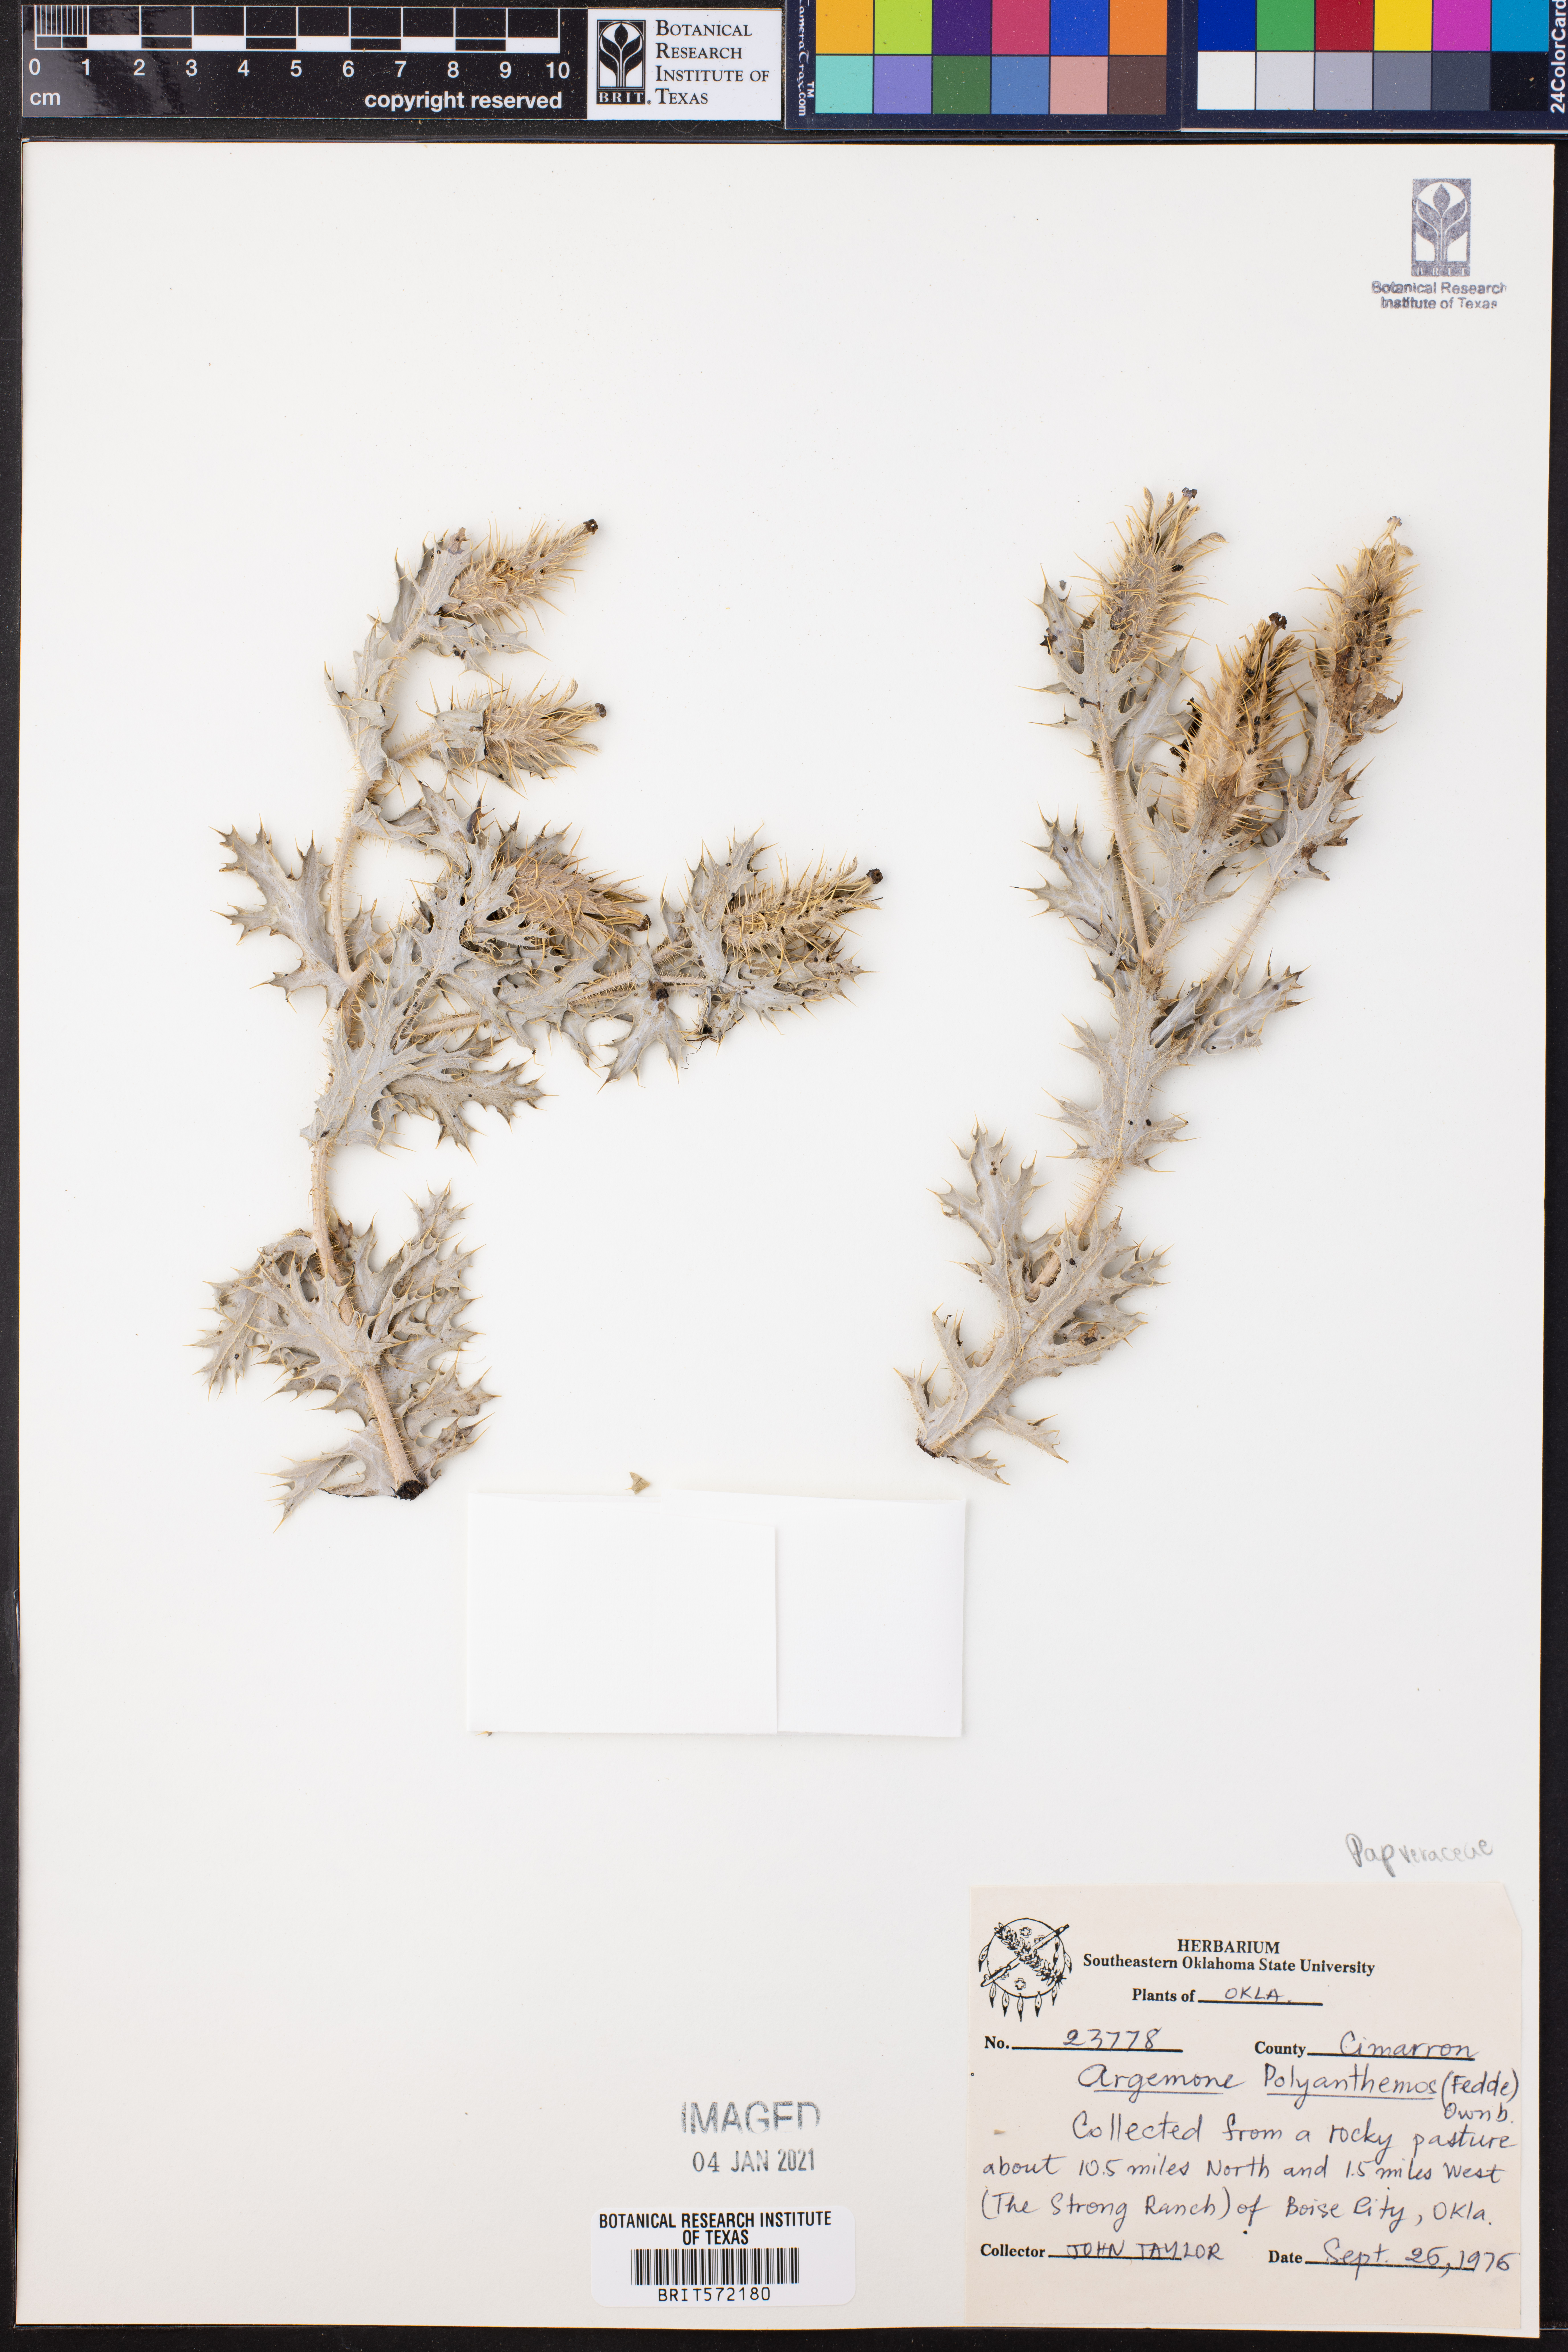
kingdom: Plantae
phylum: Tracheophyta
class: Magnoliopsida
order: Ranunculales
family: Papaveraceae
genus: Argemone
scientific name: Argemone polyanthemos
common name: Plains prickly-poppy
